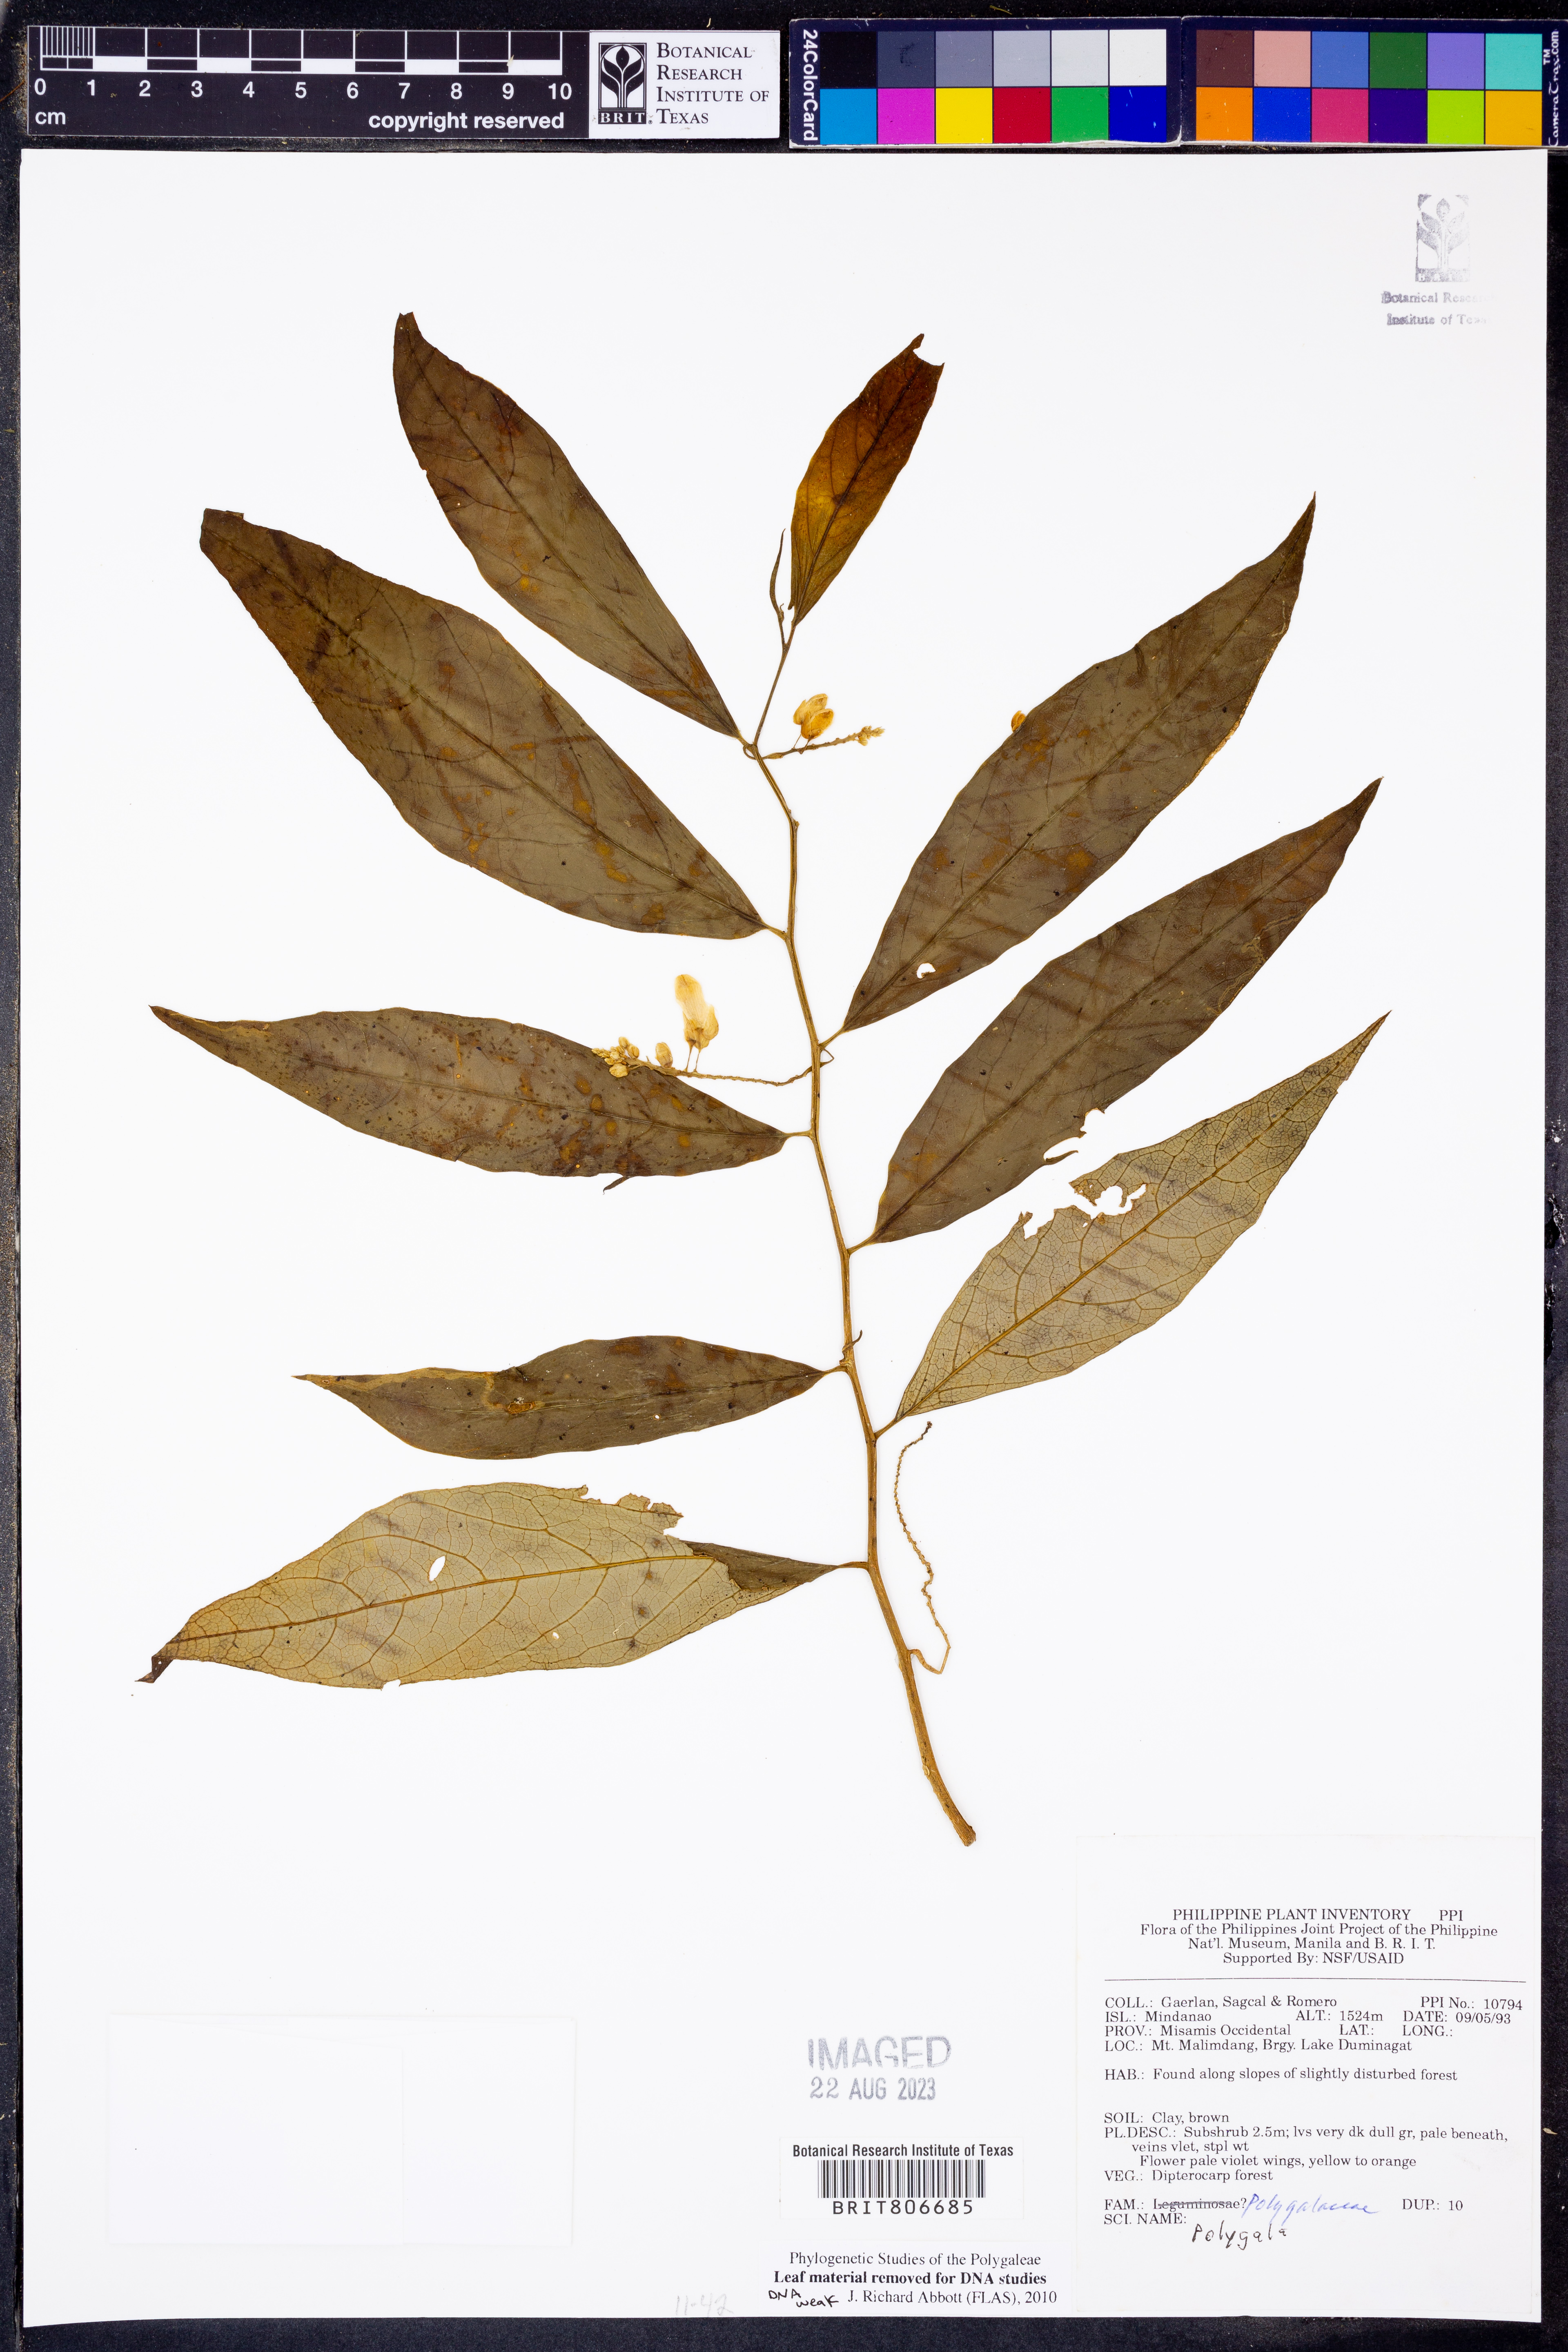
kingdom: Plantae
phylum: Tracheophyta
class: Magnoliopsida
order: Fabales
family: Polygalaceae
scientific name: Polygalaceae
